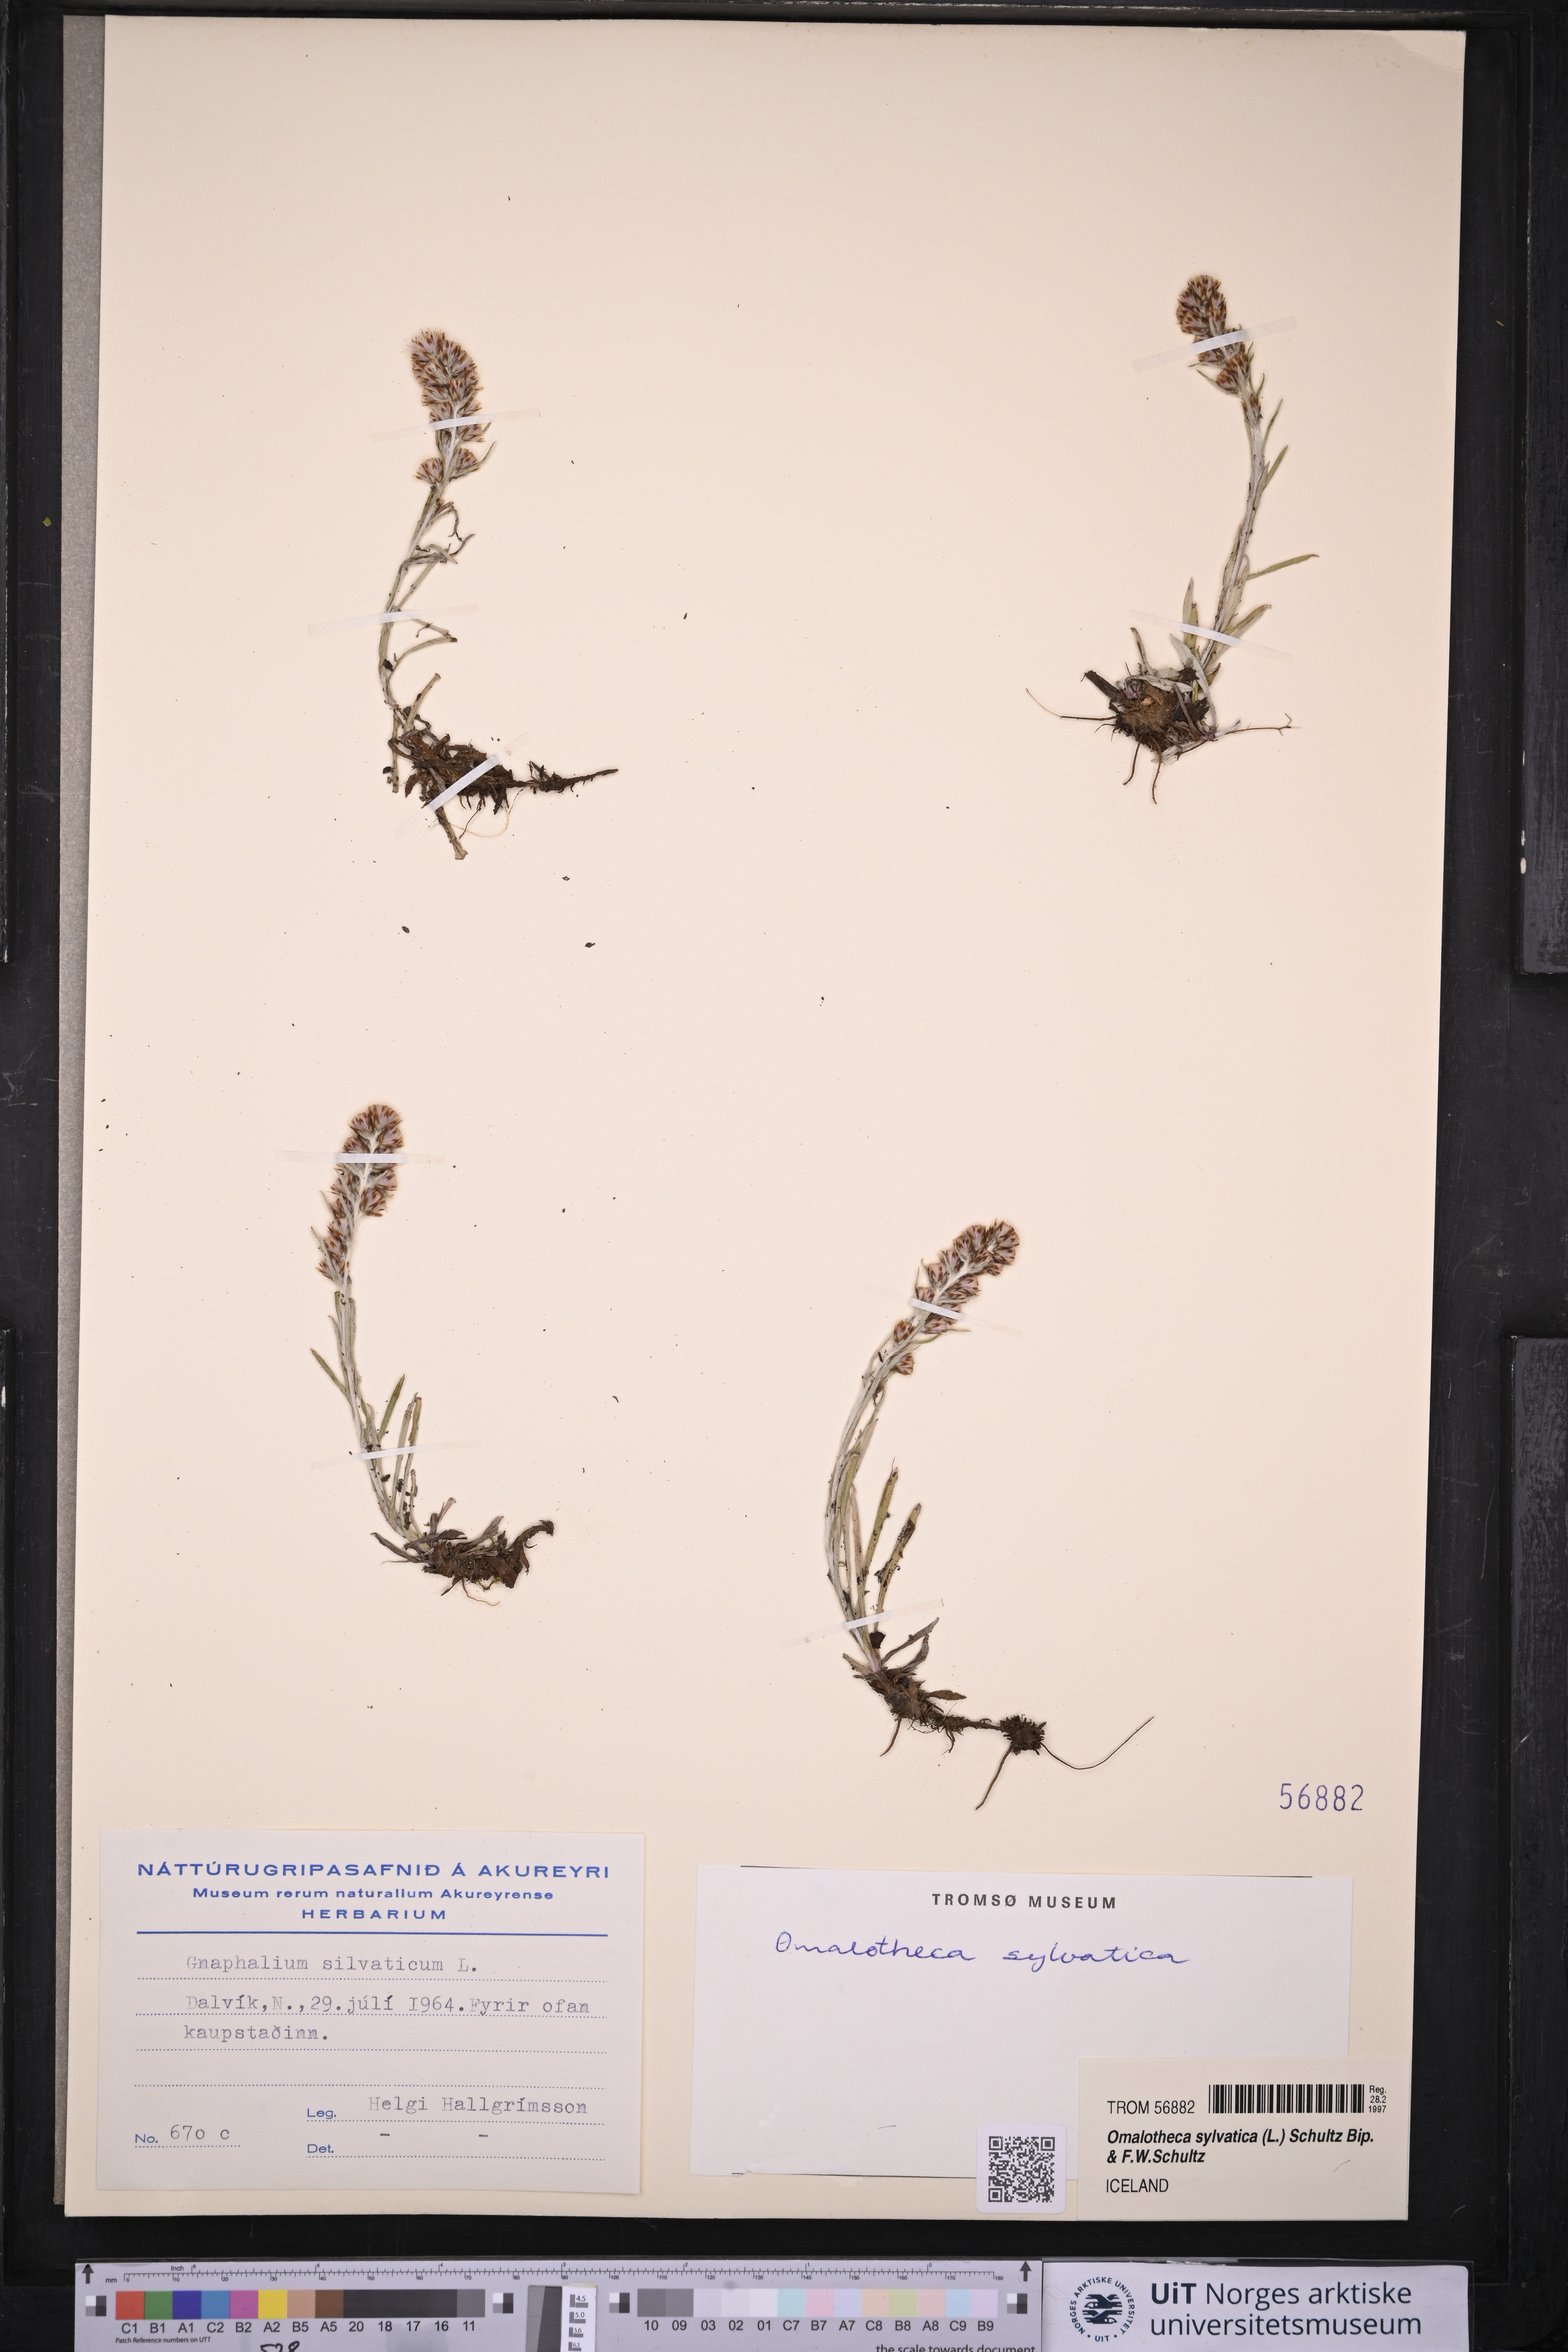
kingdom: Plantae
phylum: Tracheophyta
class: Magnoliopsida
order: Asterales
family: Asteraceae
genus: Omalotheca
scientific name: Omalotheca sylvatica
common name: Heath cudweed
